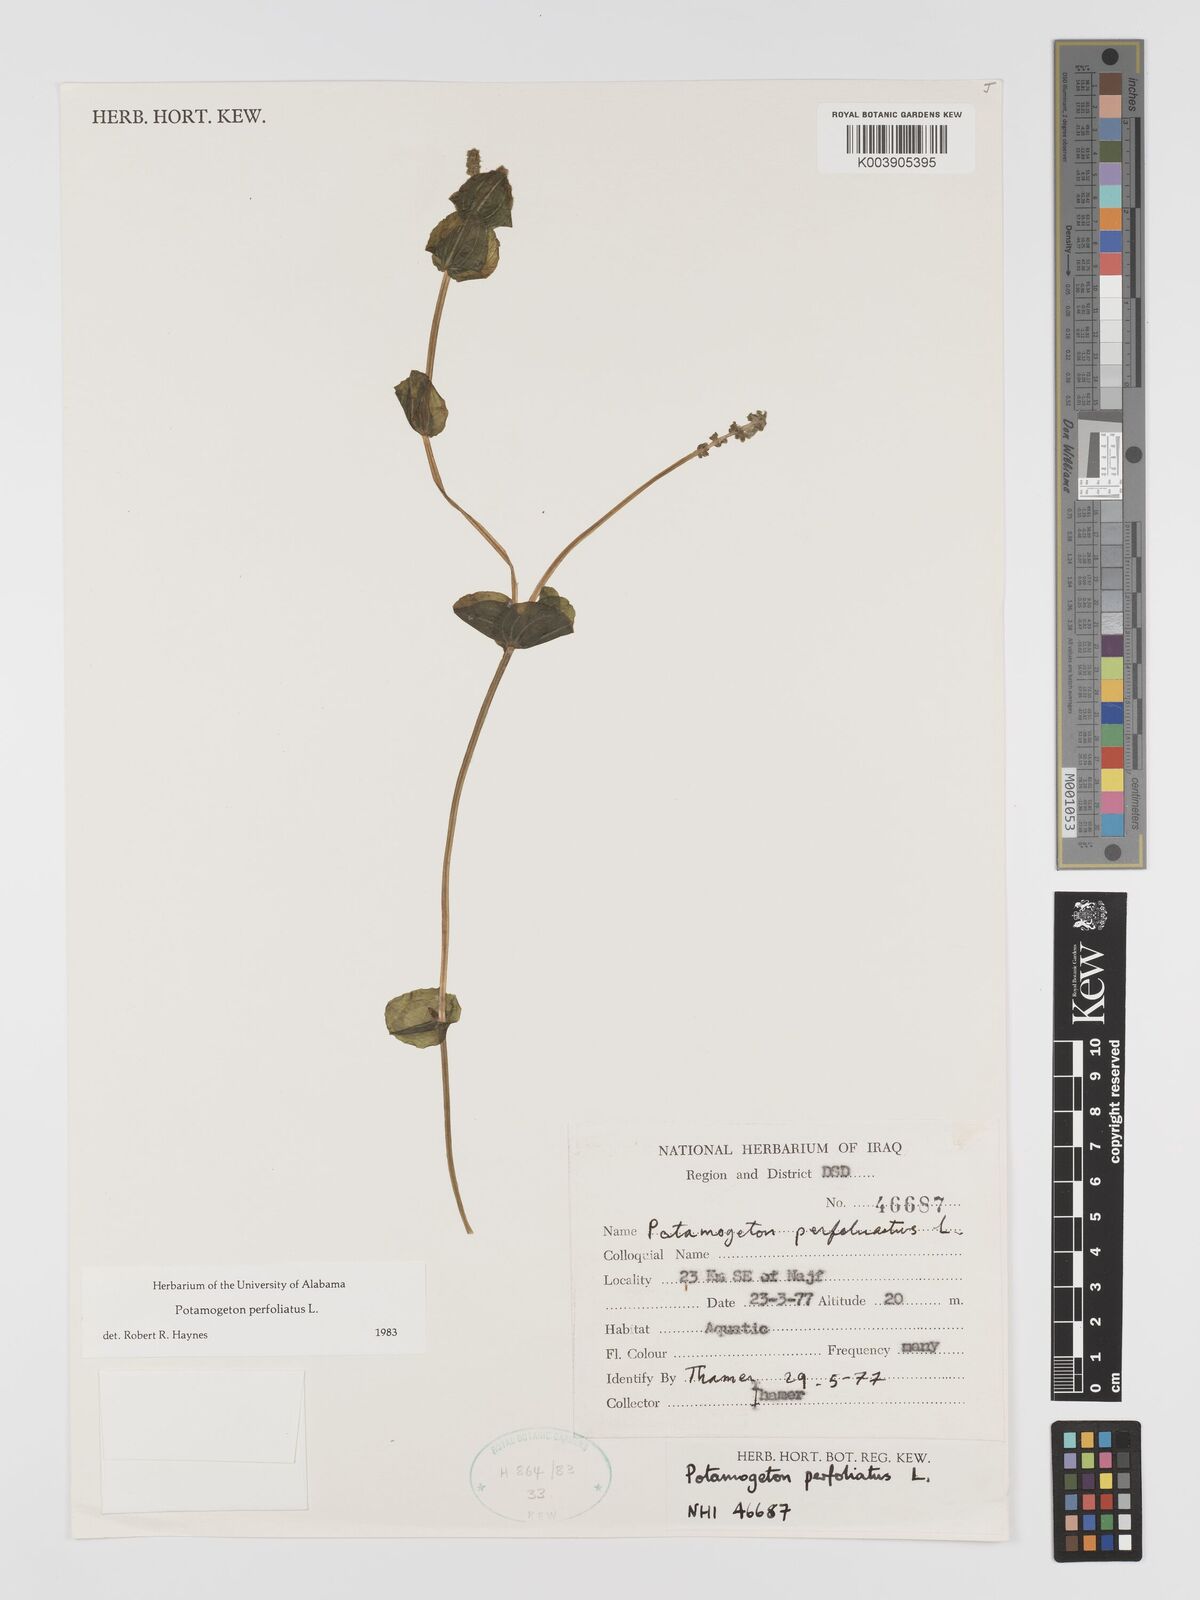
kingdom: Plantae
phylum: Tracheophyta
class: Liliopsida
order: Alismatales
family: Potamogetonaceae
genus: Potamogeton
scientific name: Potamogeton perfoliatus
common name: Perfoliate pondweed
